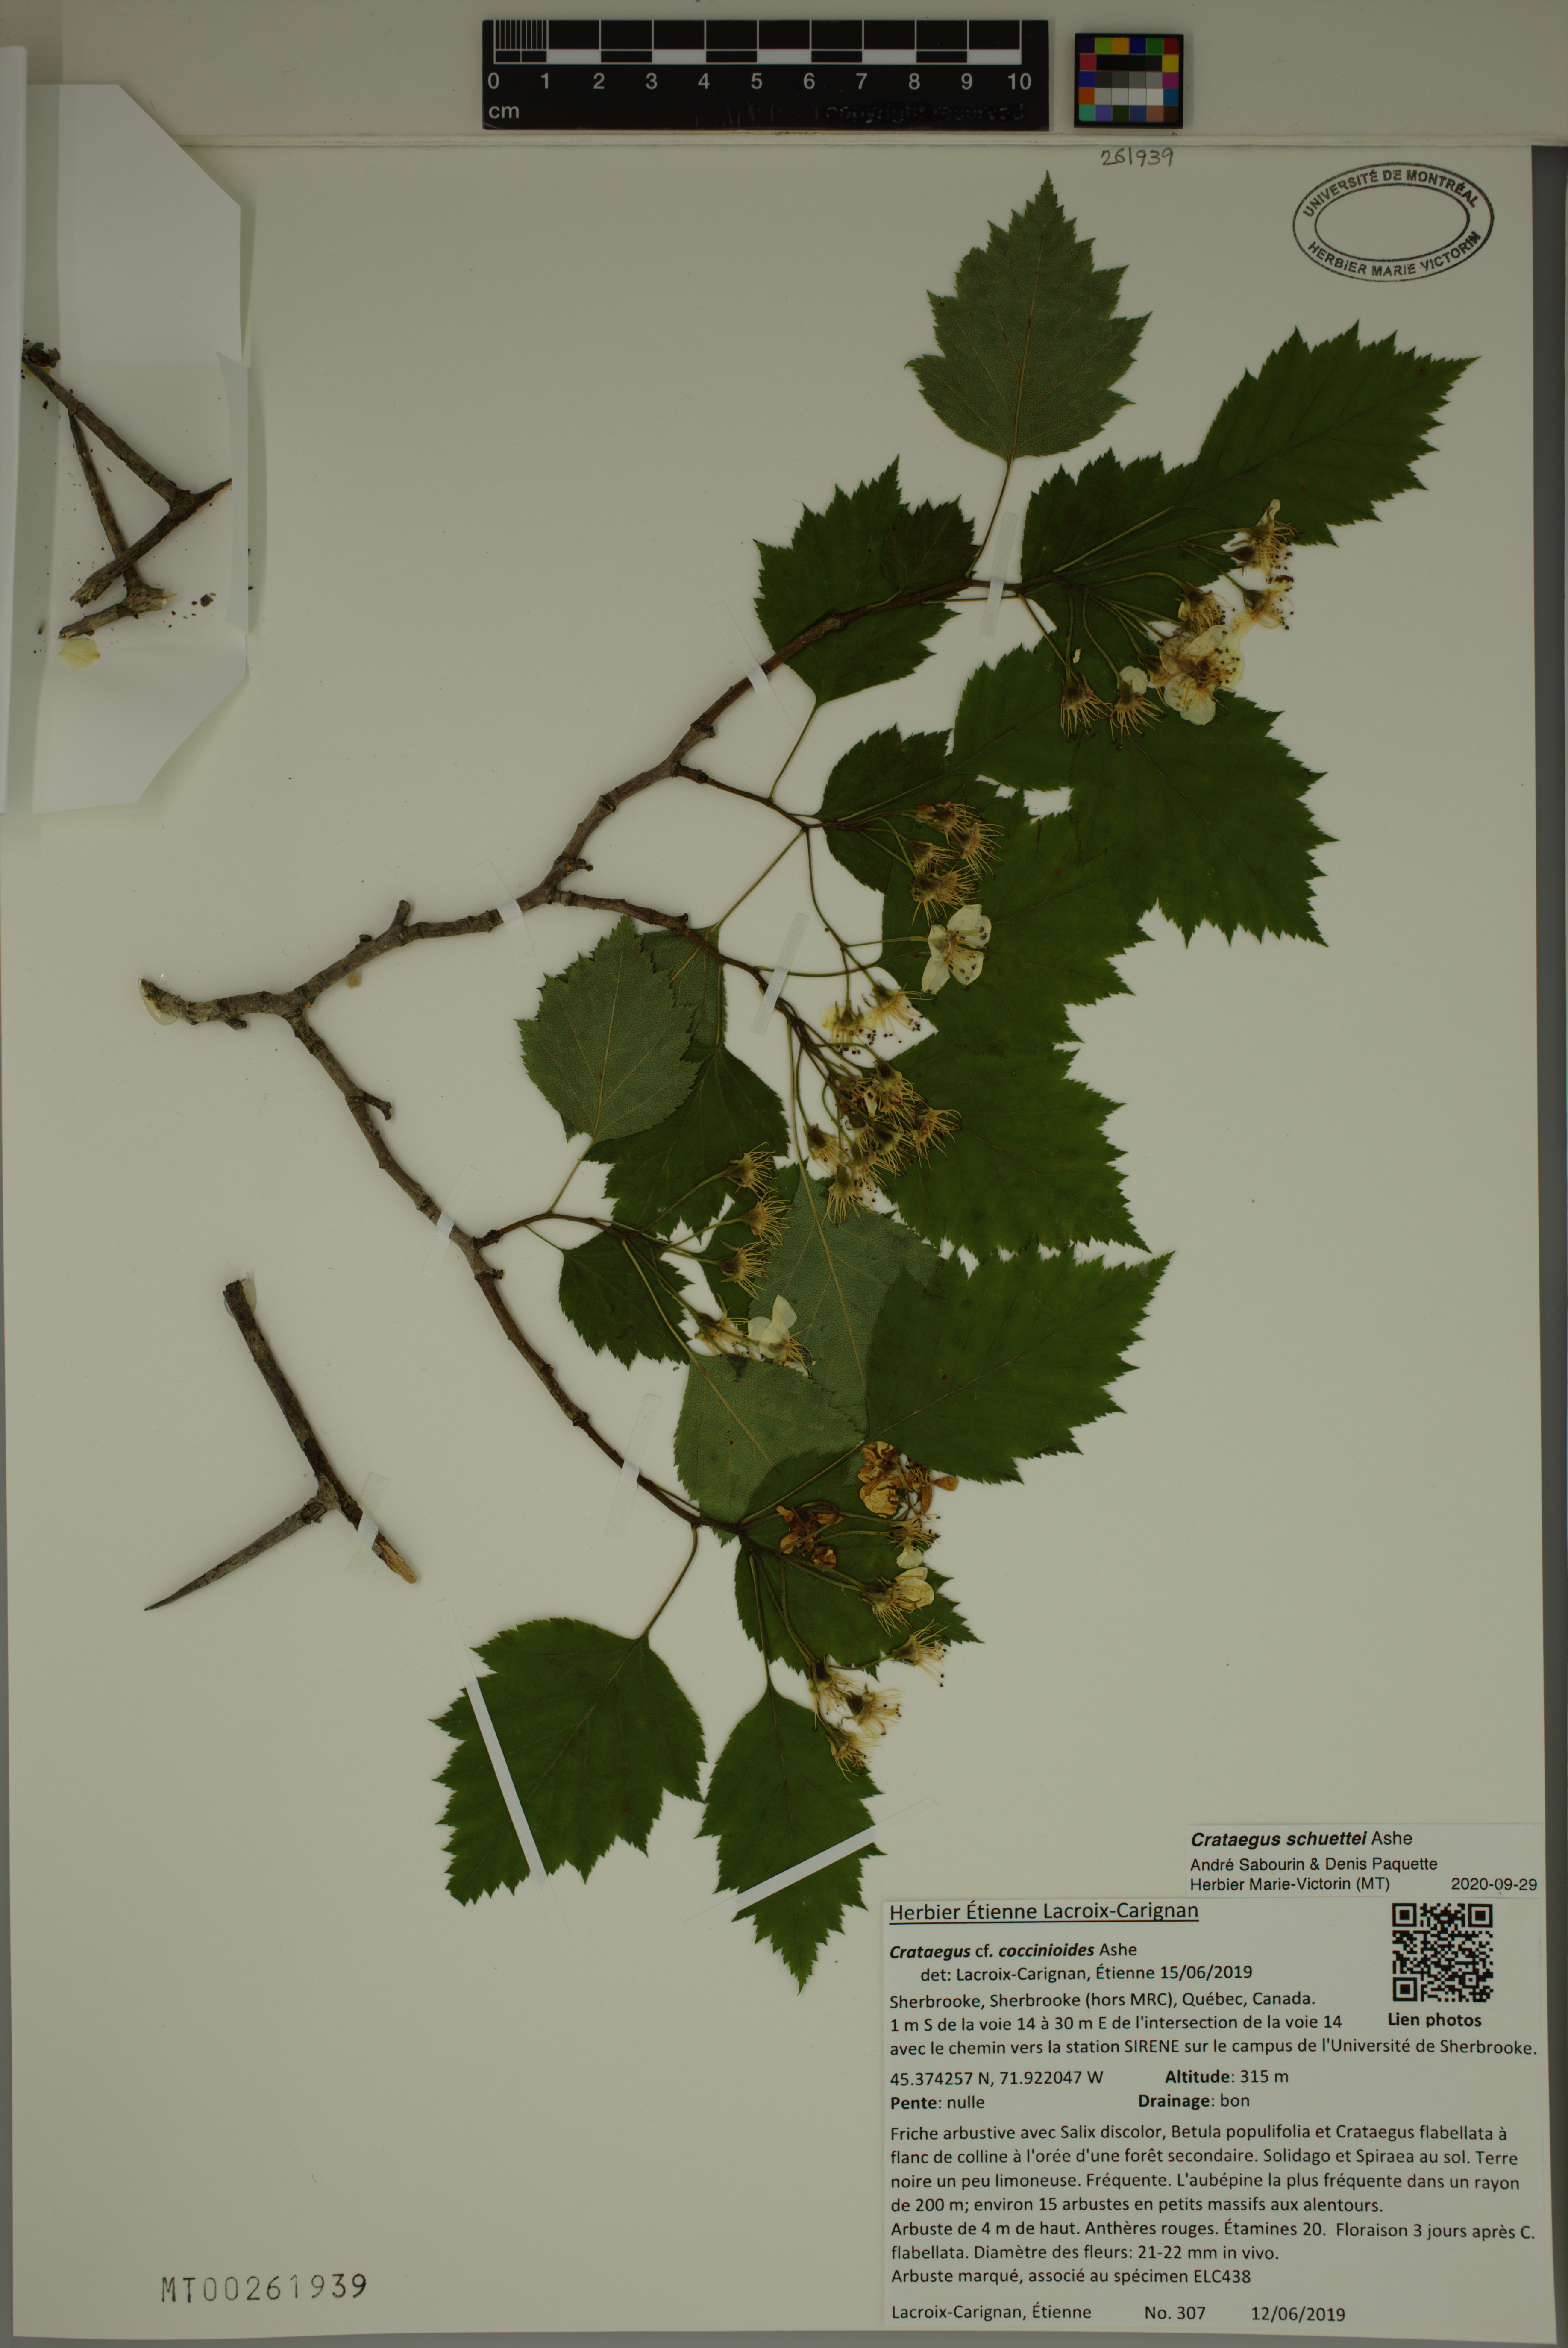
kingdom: Plantae
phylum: Tracheophyta
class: Magnoliopsida
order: Rosales
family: Rosaceae
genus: Crataegus
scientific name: Crataegus schuettei
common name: Schuette's hawthorn
